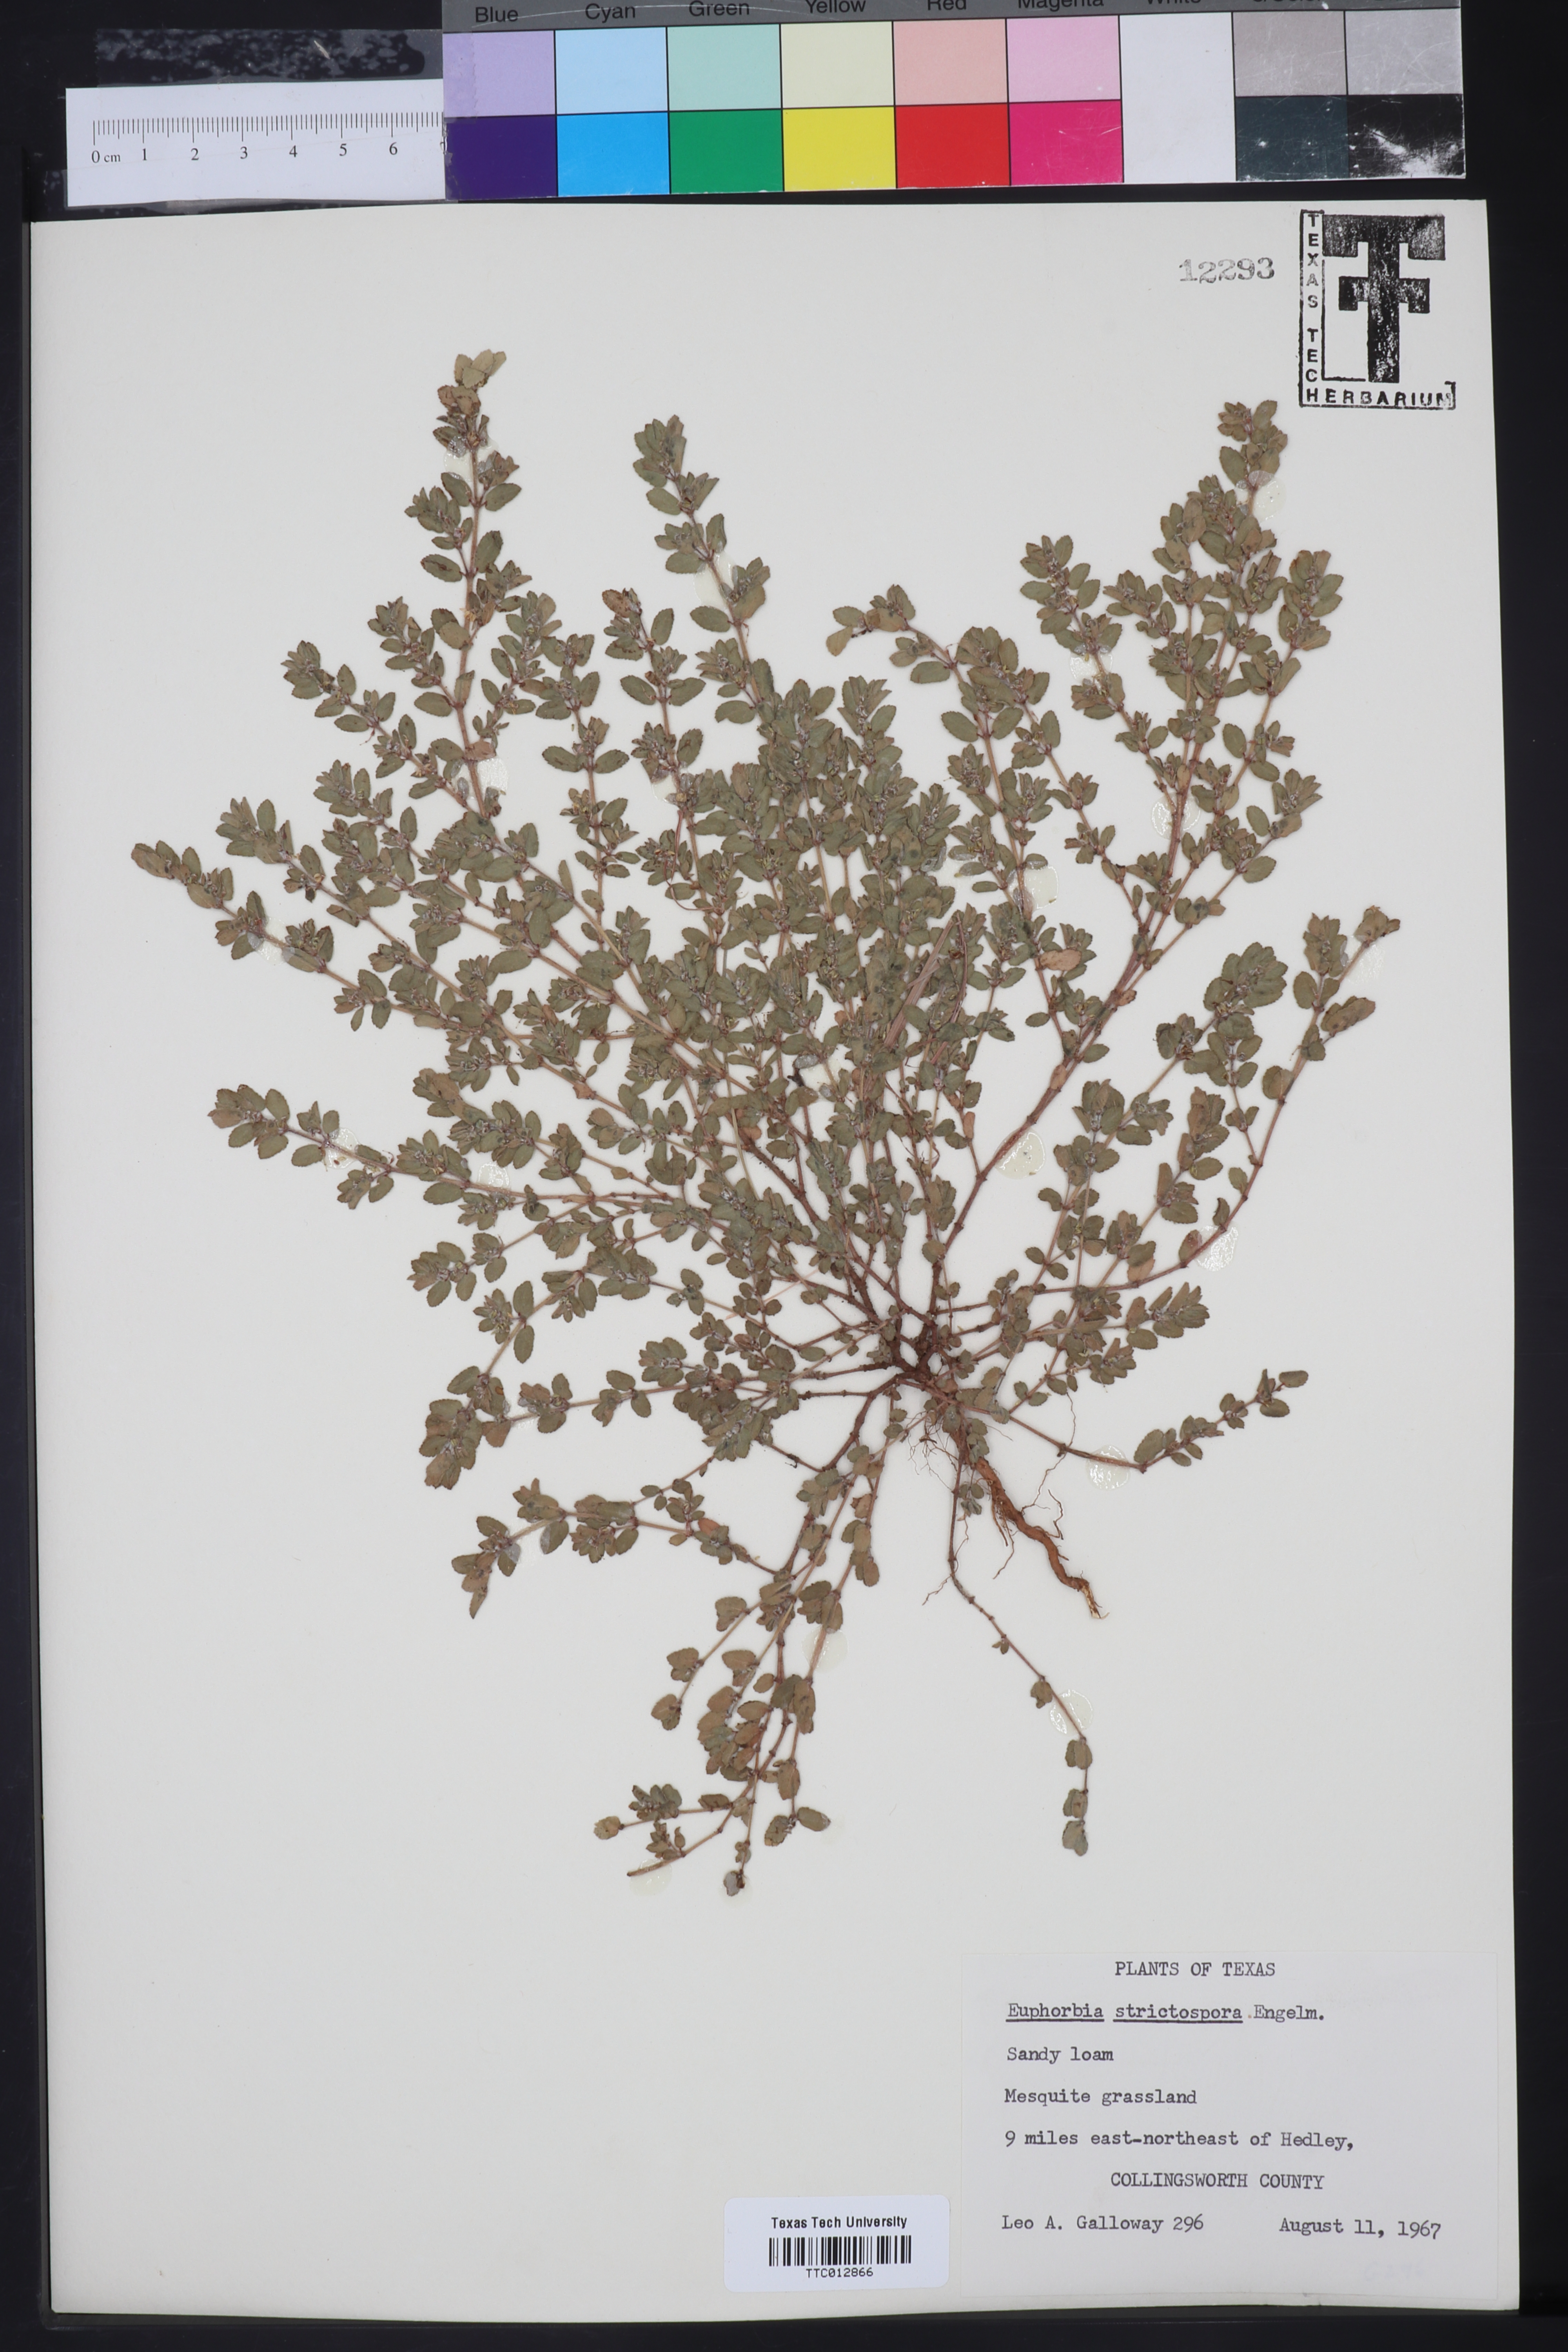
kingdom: Plantae
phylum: Tracheophyta
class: Magnoliopsida
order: Malpighiales
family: Euphorbiaceae
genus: Euphorbia
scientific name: Euphorbia
